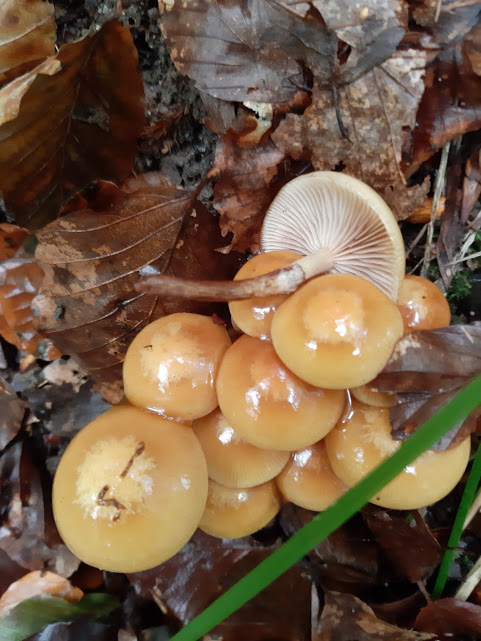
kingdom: Fungi
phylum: Basidiomycota
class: Agaricomycetes
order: Agaricales
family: Strophariaceae
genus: Kuehneromyces
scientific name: Kuehneromyces mutabilis
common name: foranderlig skælhat
